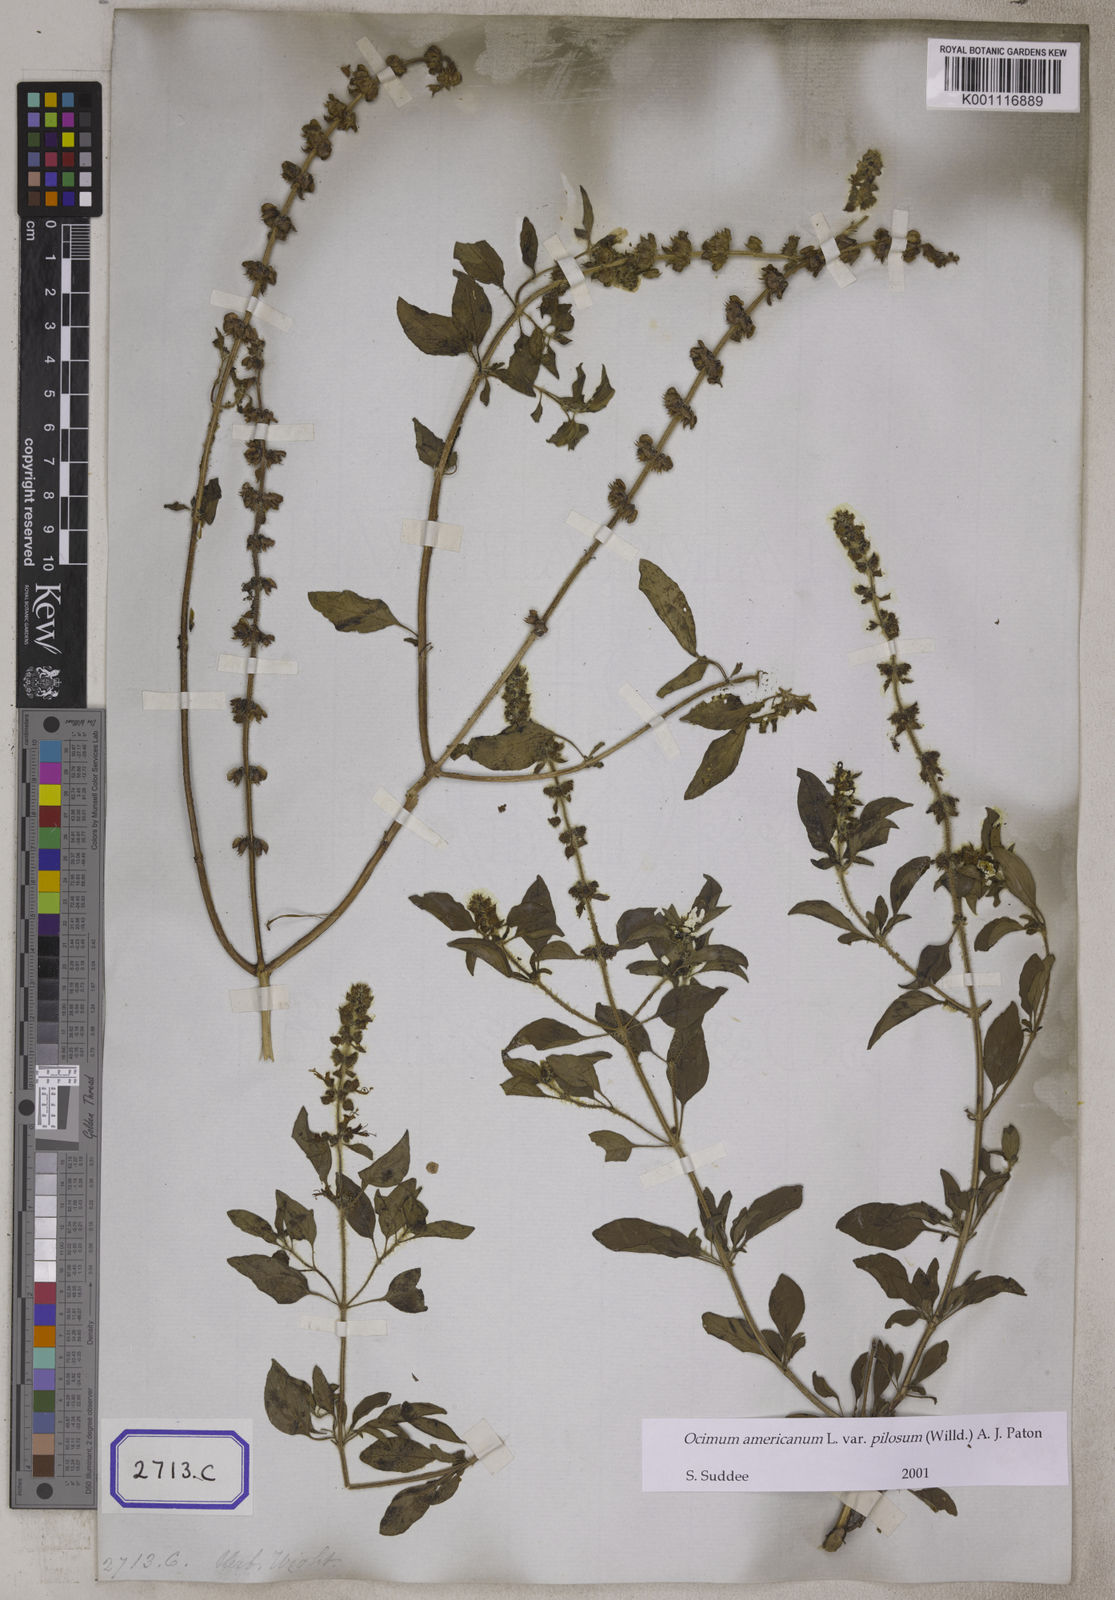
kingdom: Plantae
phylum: Tracheophyta
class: Magnoliopsida
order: Lamiales
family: Lamiaceae
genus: Ocimum
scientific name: Ocimum basilicum
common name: Sweet basil
